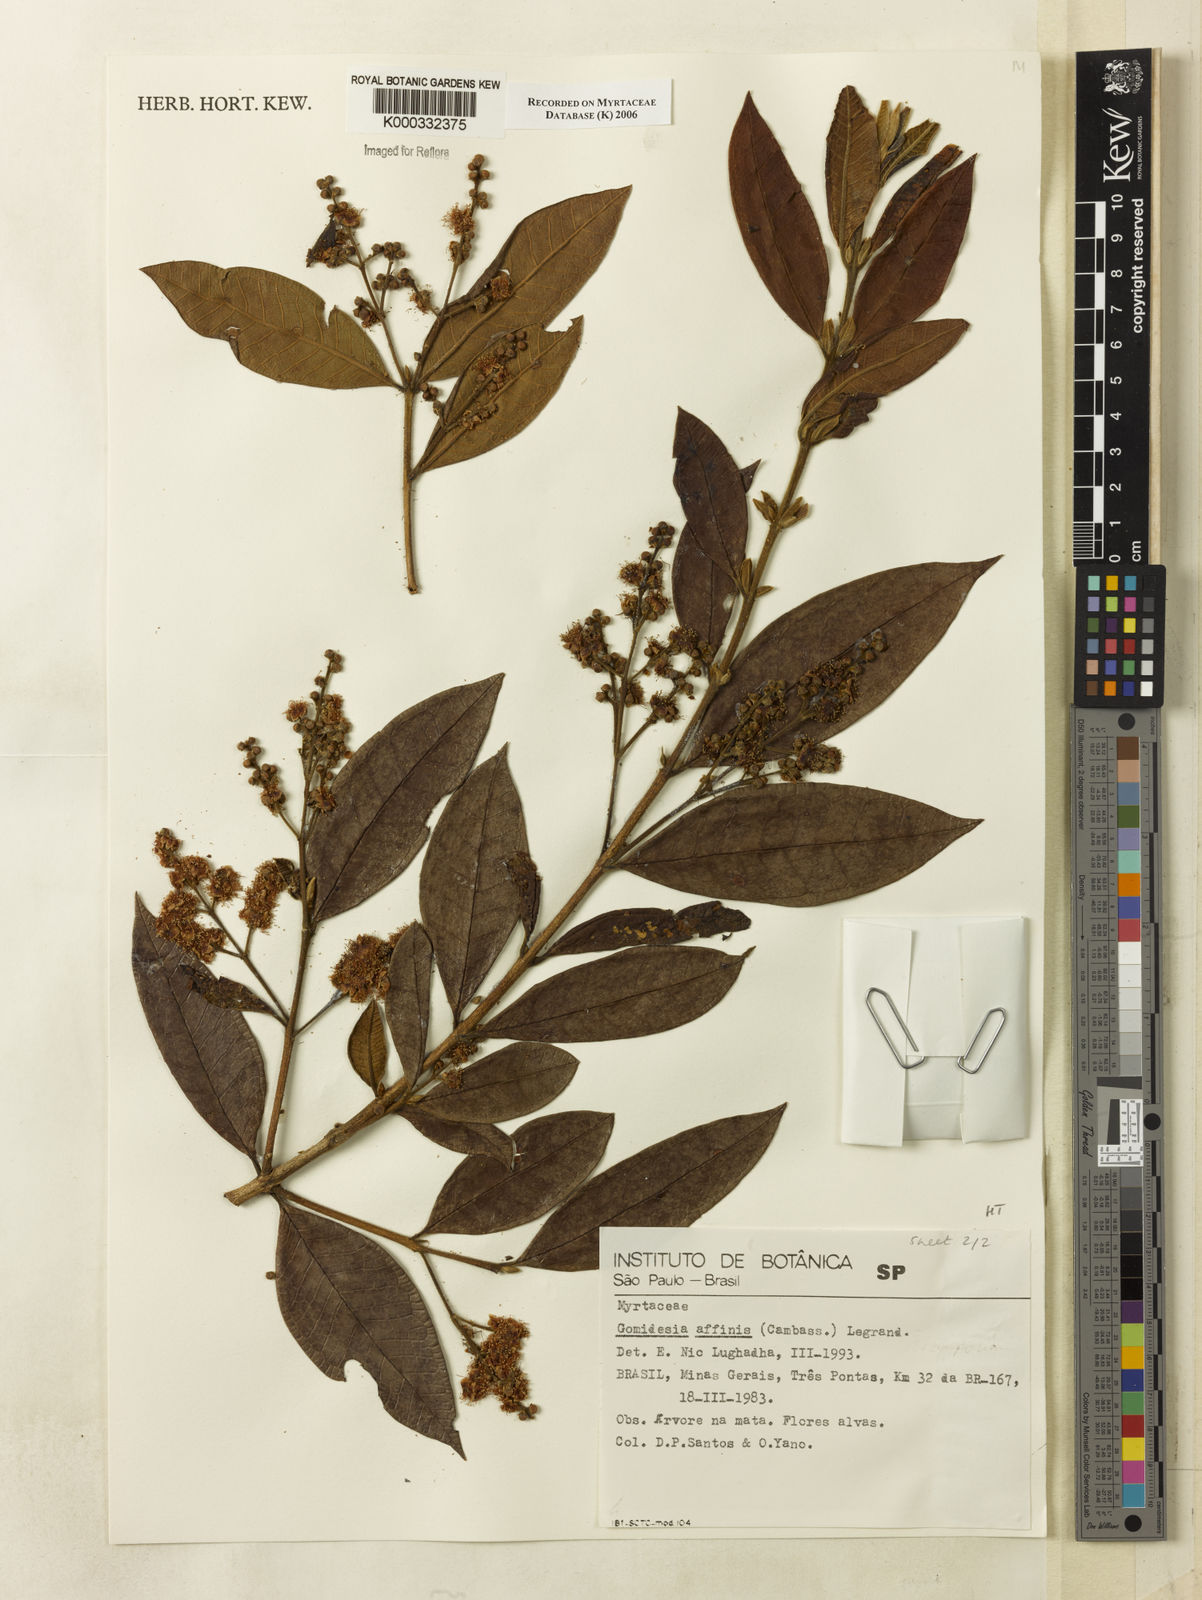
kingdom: Plantae
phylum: Tracheophyta
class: Magnoliopsida
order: Myrtales
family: Myrtaceae
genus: Myrcia
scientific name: Myrcia hebepetala
